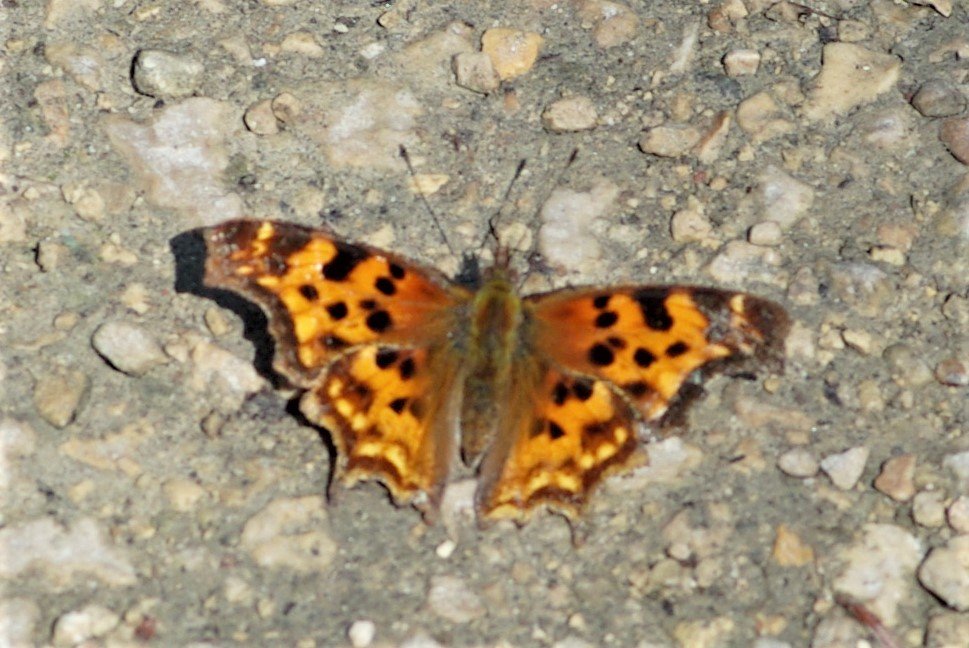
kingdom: Animalia
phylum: Arthropoda
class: Insecta
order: Lepidoptera
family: Nymphalidae
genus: Polygonia
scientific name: Polygonia faunus
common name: Green Comma
